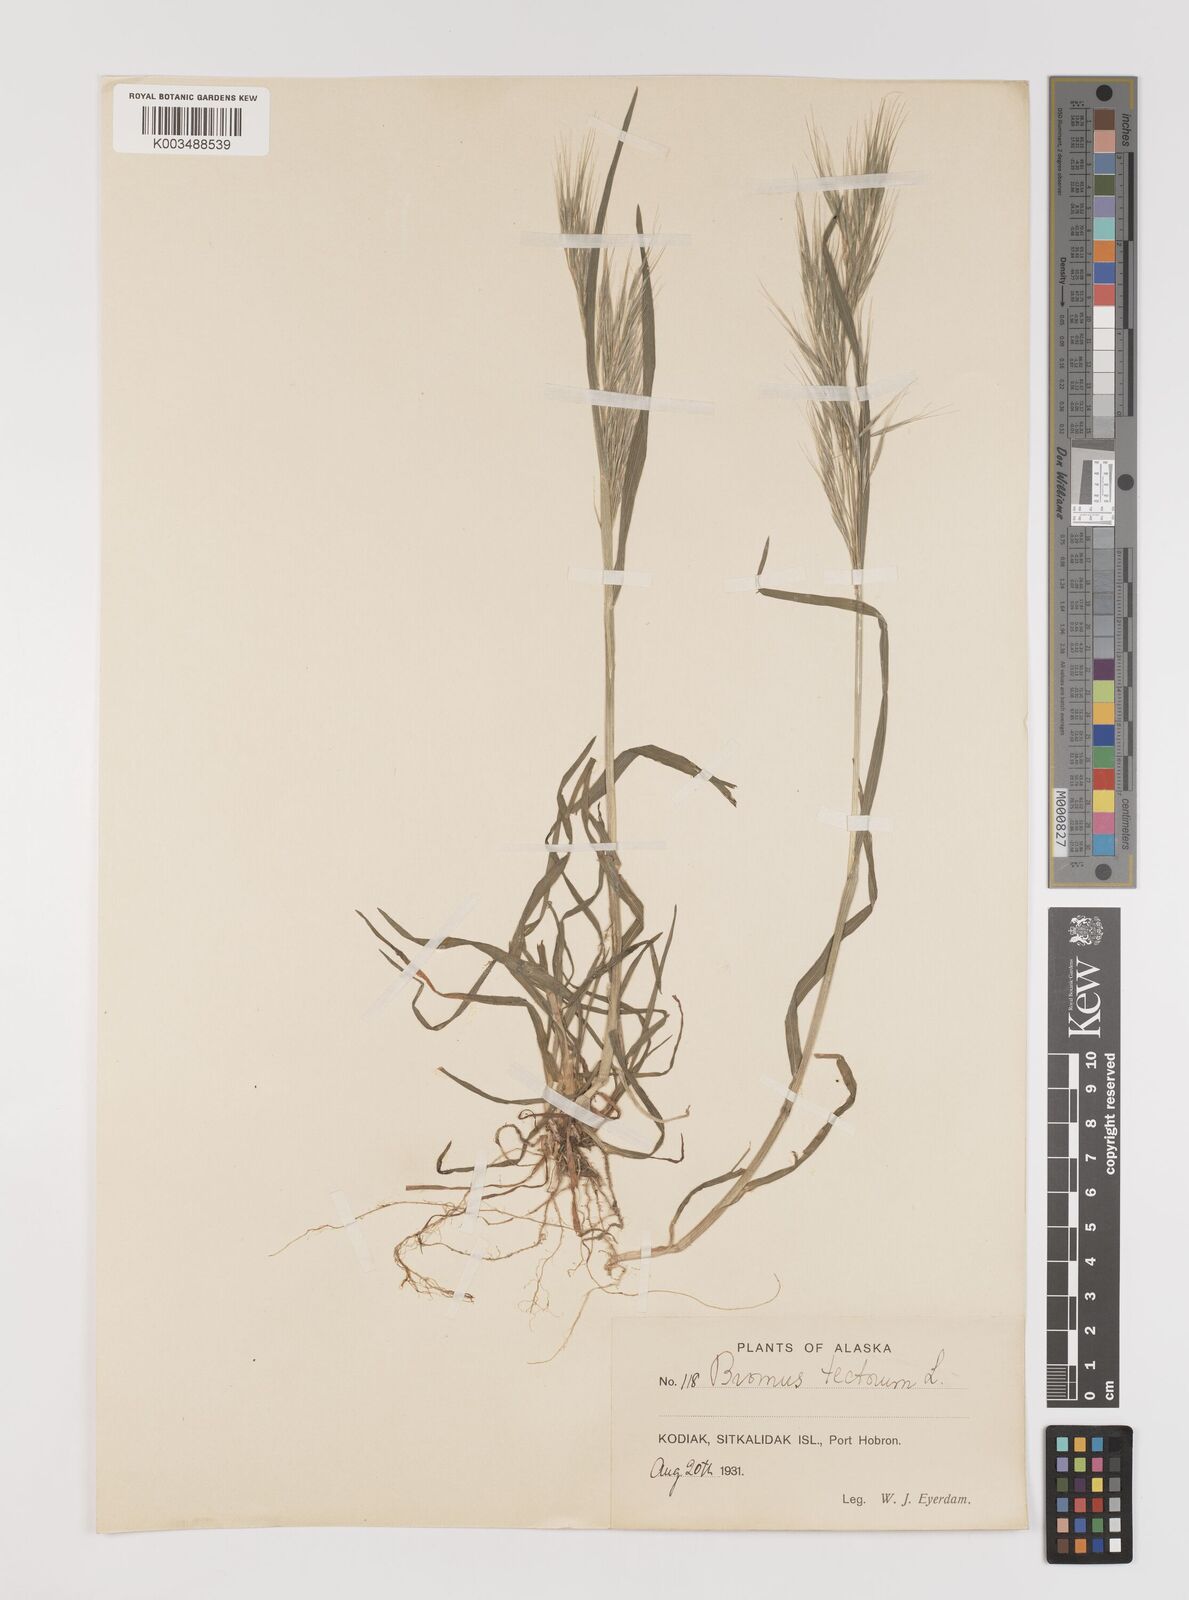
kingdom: Plantae
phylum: Tracheophyta
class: Liliopsida
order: Poales
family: Poaceae
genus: Bromus
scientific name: Bromus tectorum
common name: Cheatgrass
